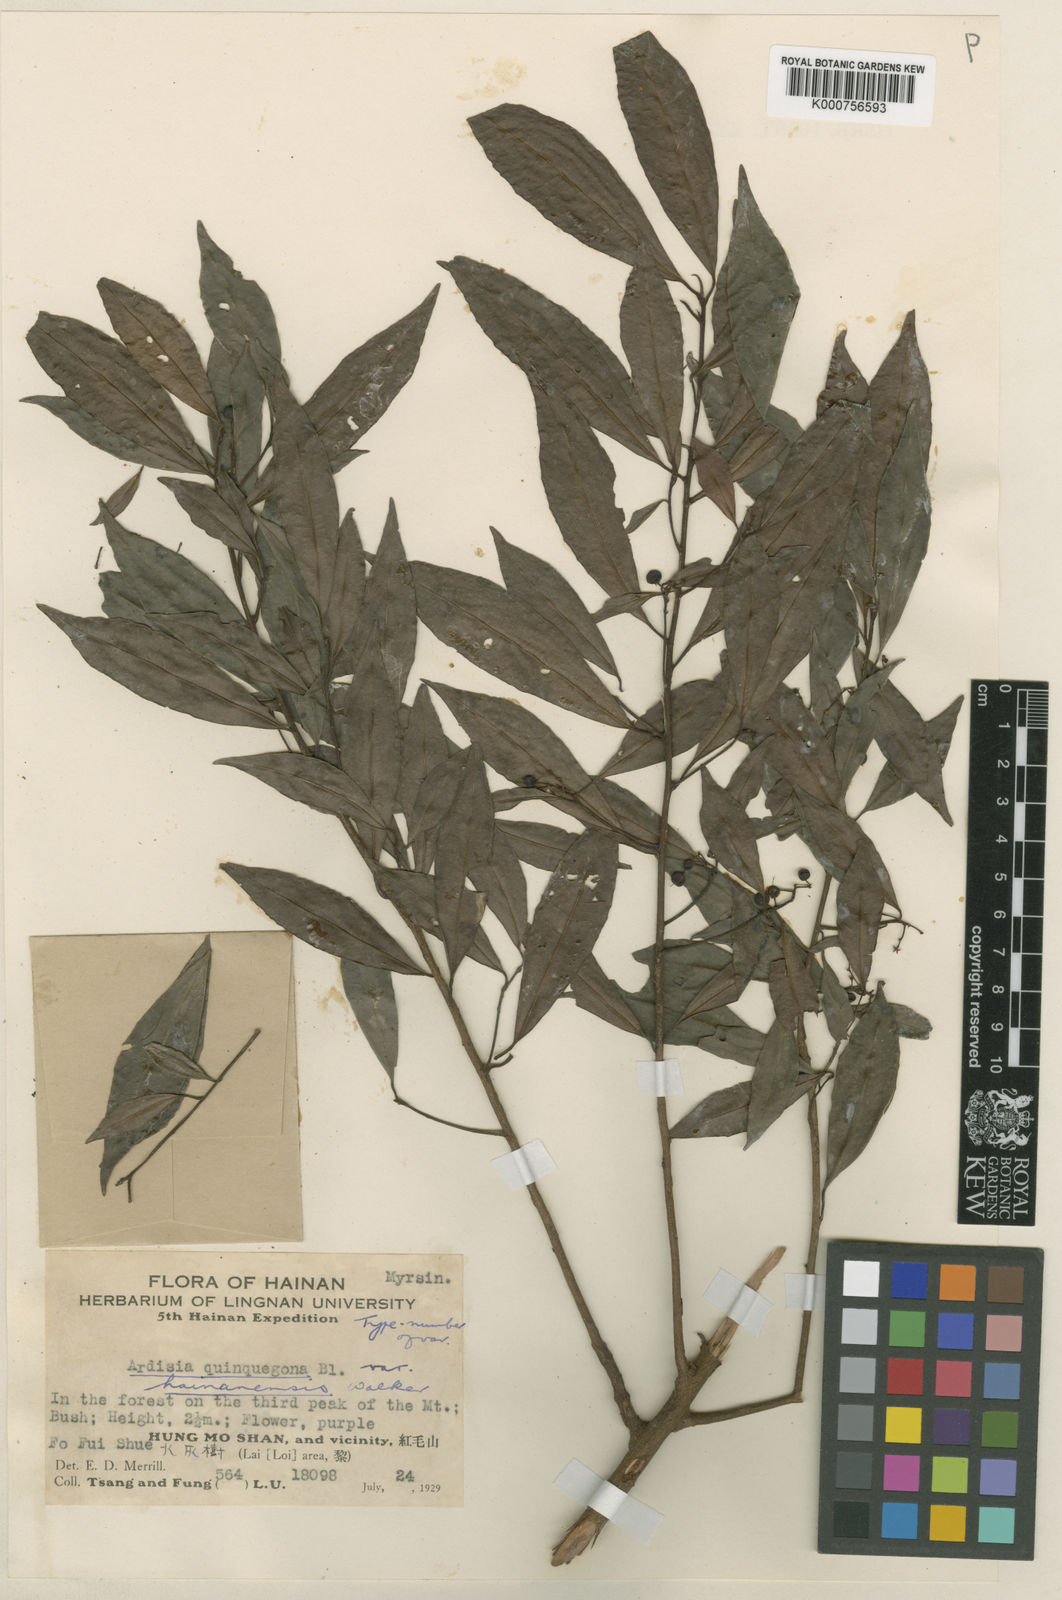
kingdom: Plantae
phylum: Tracheophyta
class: Magnoliopsida
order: Ericales
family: Primulaceae
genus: Ardisia
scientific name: Ardisia quinquegona
